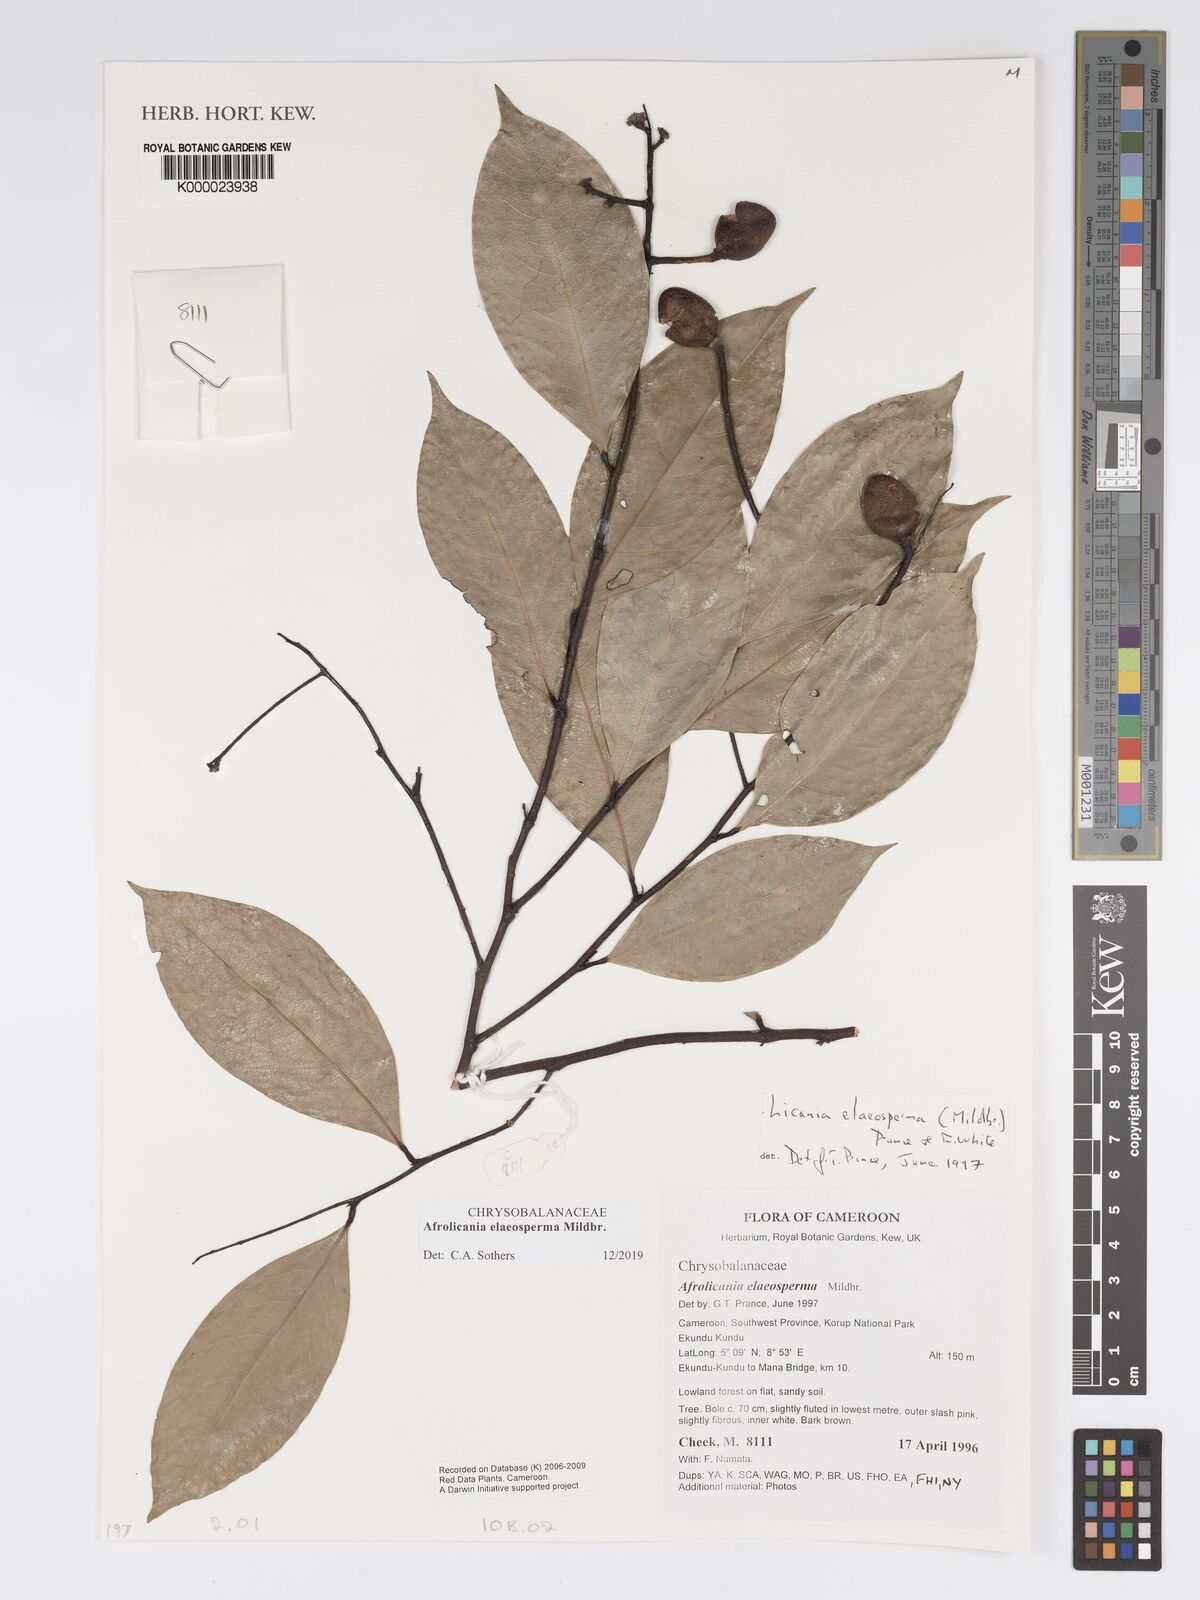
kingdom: Plantae
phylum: Tracheophyta
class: Magnoliopsida
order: Malpighiales
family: Chrysobalanaceae
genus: Afrolicania
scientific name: Afrolicania elaeosperma
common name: Nikko
